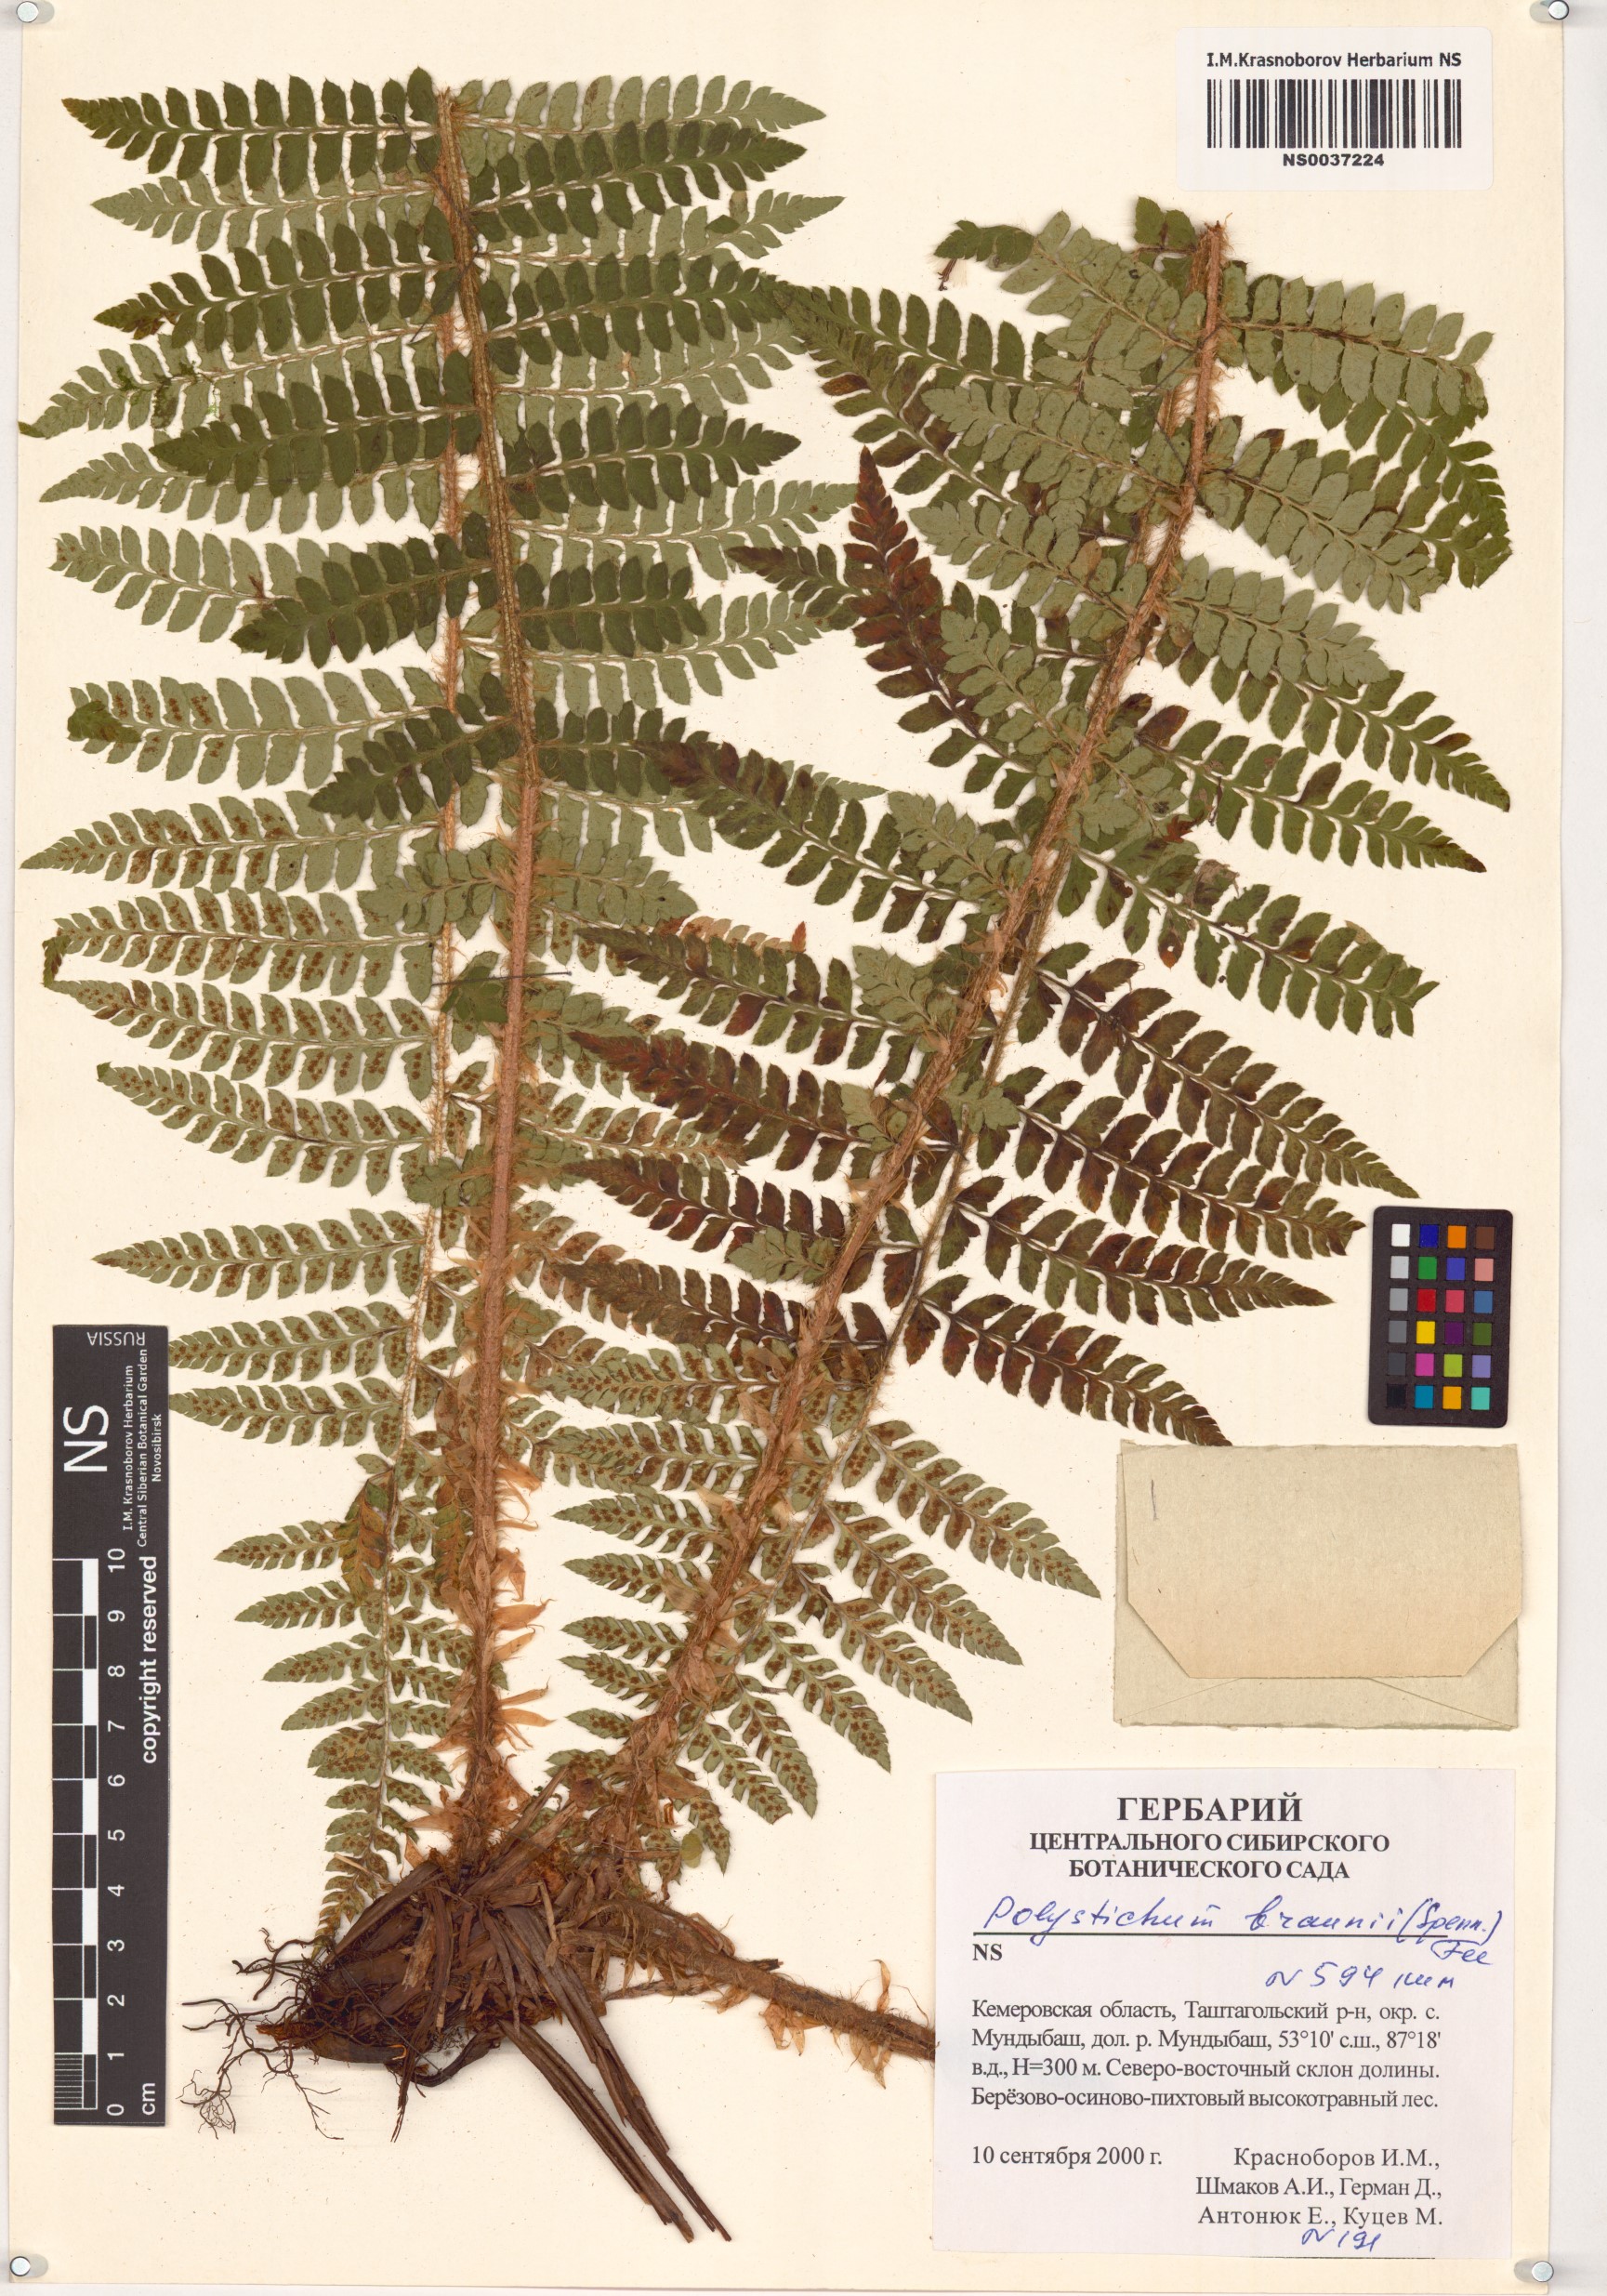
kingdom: Plantae
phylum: Tracheophyta
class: Polypodiopsida
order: Polypodiales
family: Dryopteridaceae
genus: Polystichum
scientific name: Polystichum braunii
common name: Braun's holly fern
